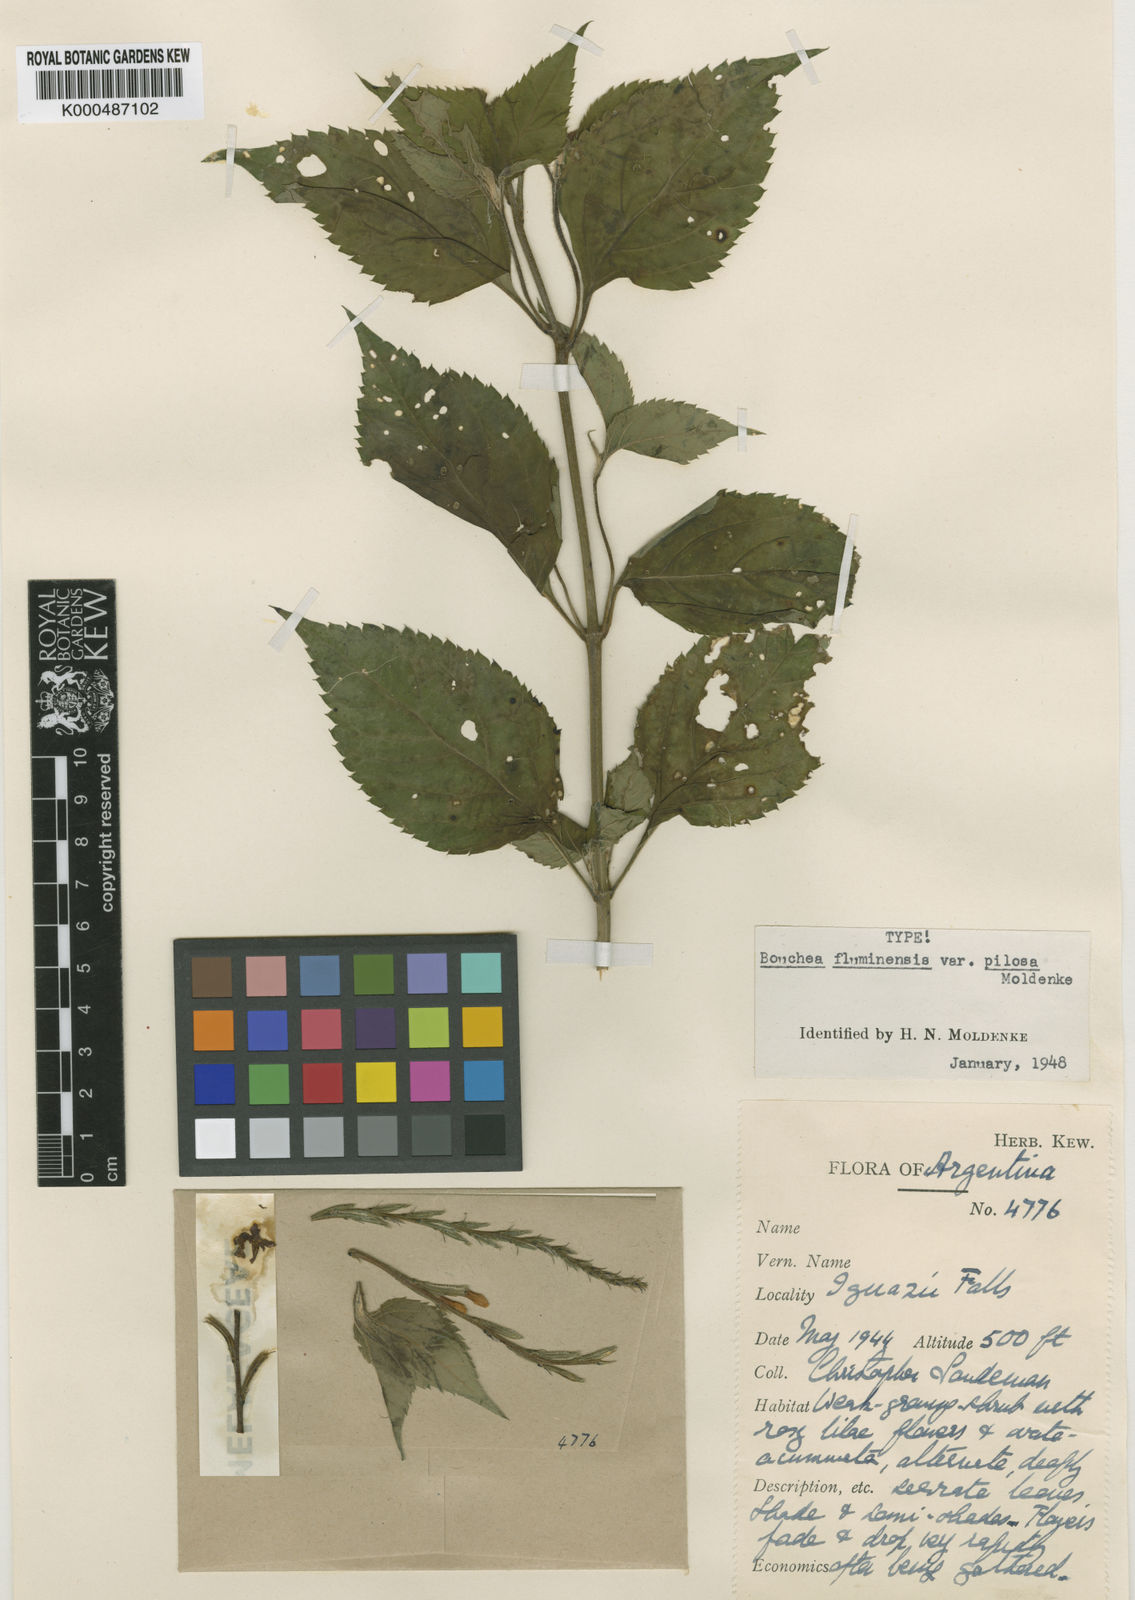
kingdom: Plantae
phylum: Tracheophyta
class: Magnoliopsida
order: Lamiales
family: Verbenaceae
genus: Bouchea
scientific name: Bouchea pseudogervao
